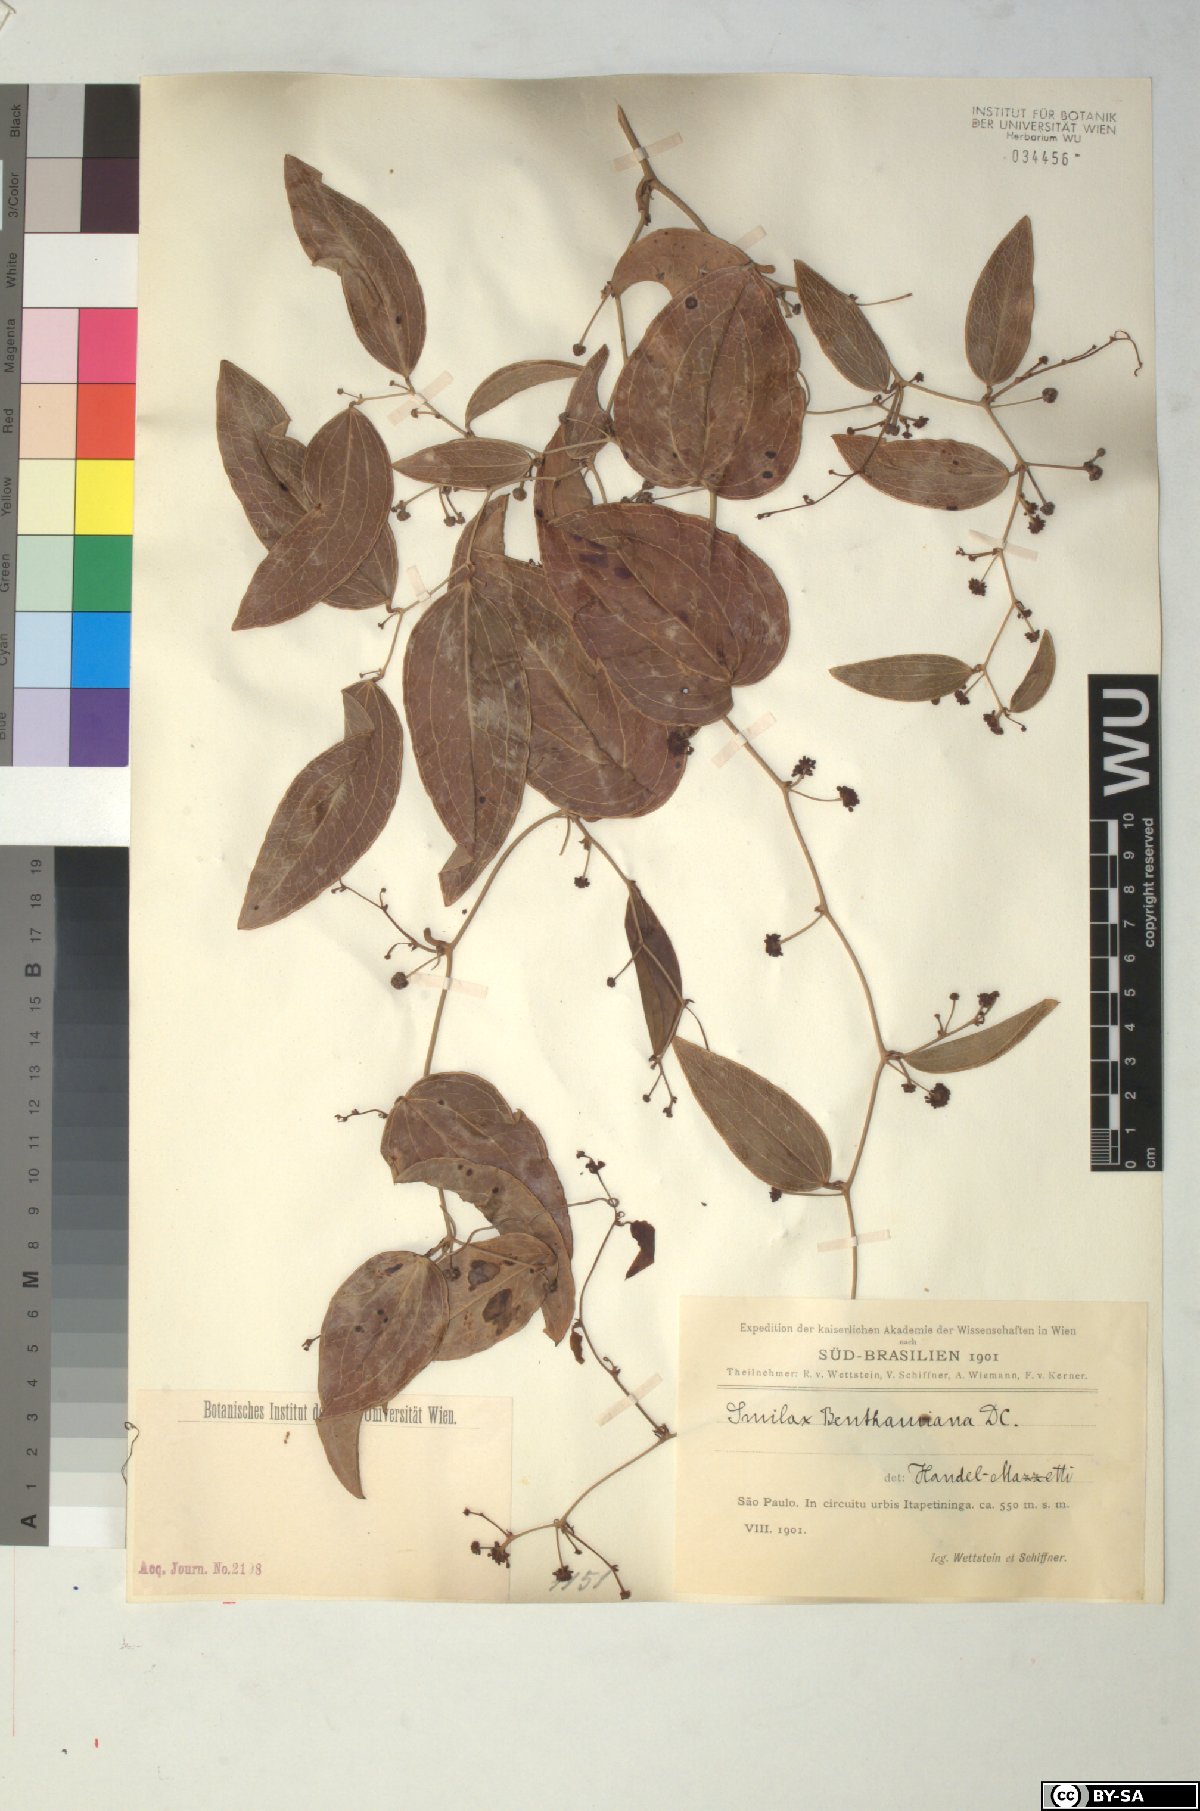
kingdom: Plantae
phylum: Tracheophyta
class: Liliopsida
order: Liliales
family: Smilacaceae
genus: Smilax
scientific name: Smilax irrorata
